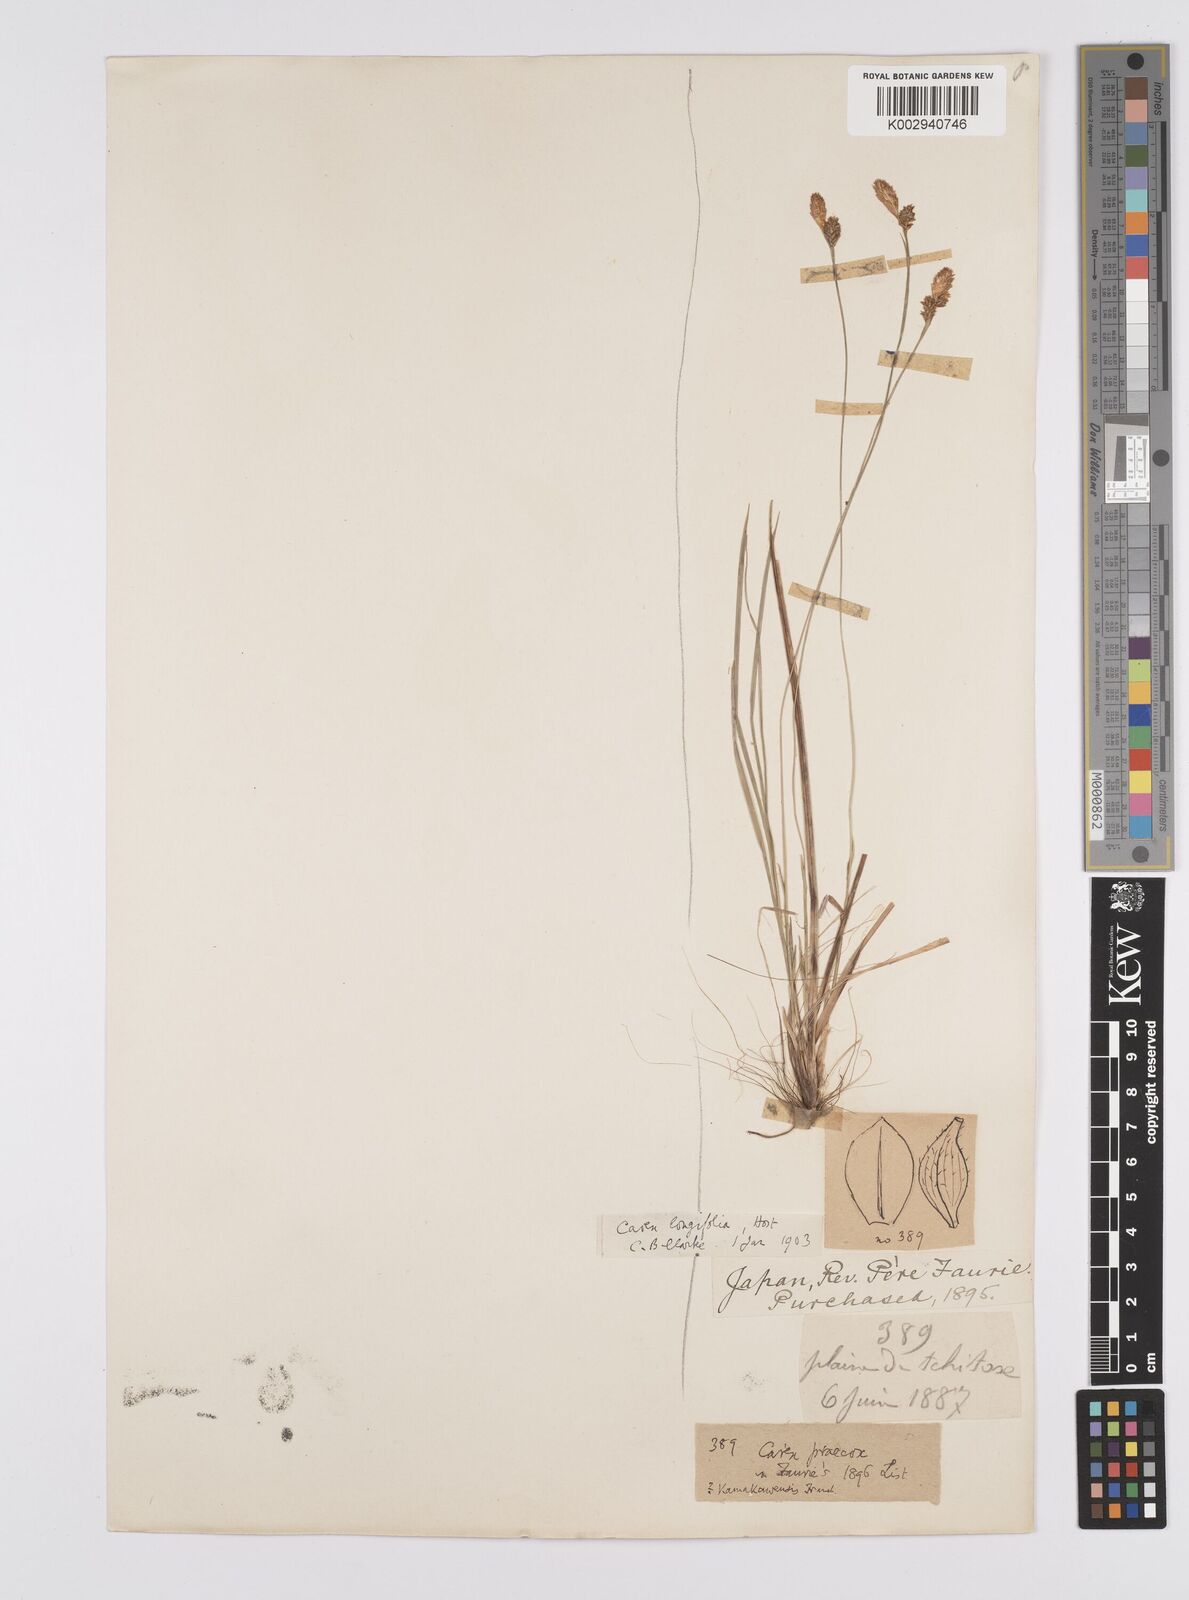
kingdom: Plantae
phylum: Tracheophyta
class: Liliopsida
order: Poales
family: Cyperaceae
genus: Carex
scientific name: Carex umbrosa
